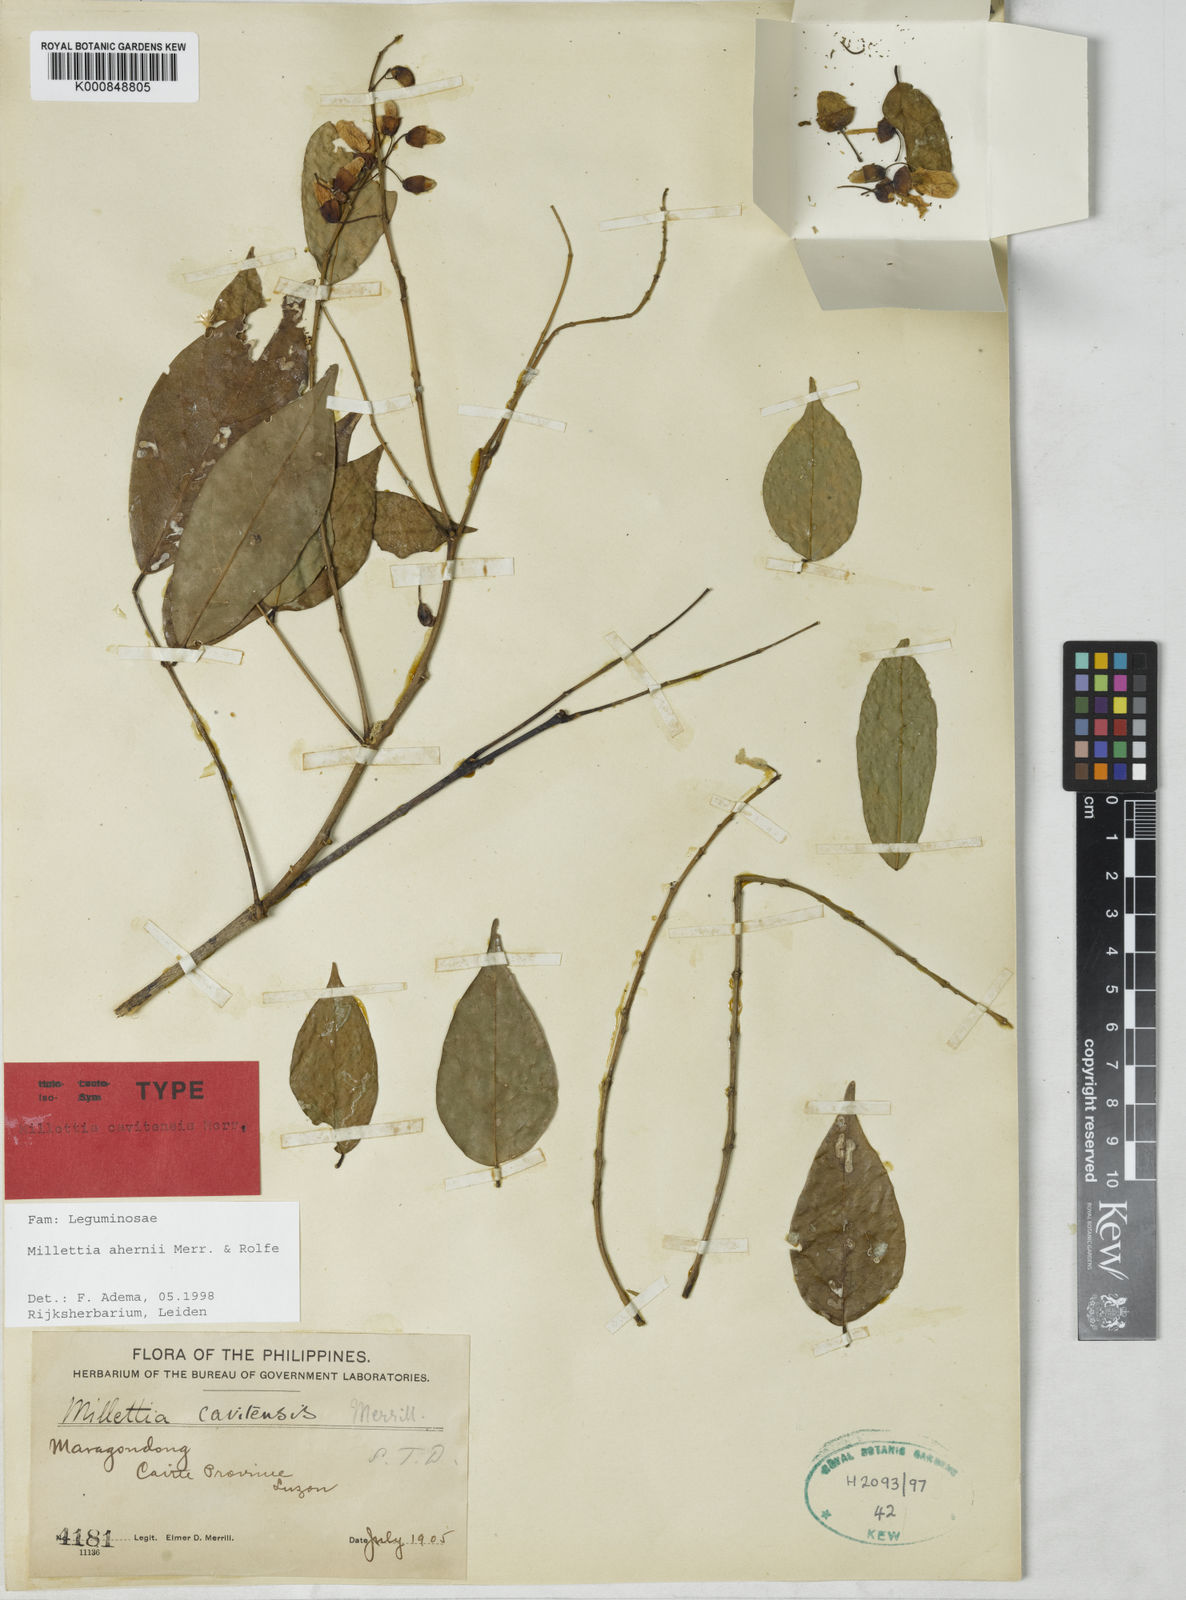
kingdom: Plantae
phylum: Tracheophyta
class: Magnoliopsida
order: Fabales
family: Fabaceae
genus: Millettia
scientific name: Millettia ahernii
